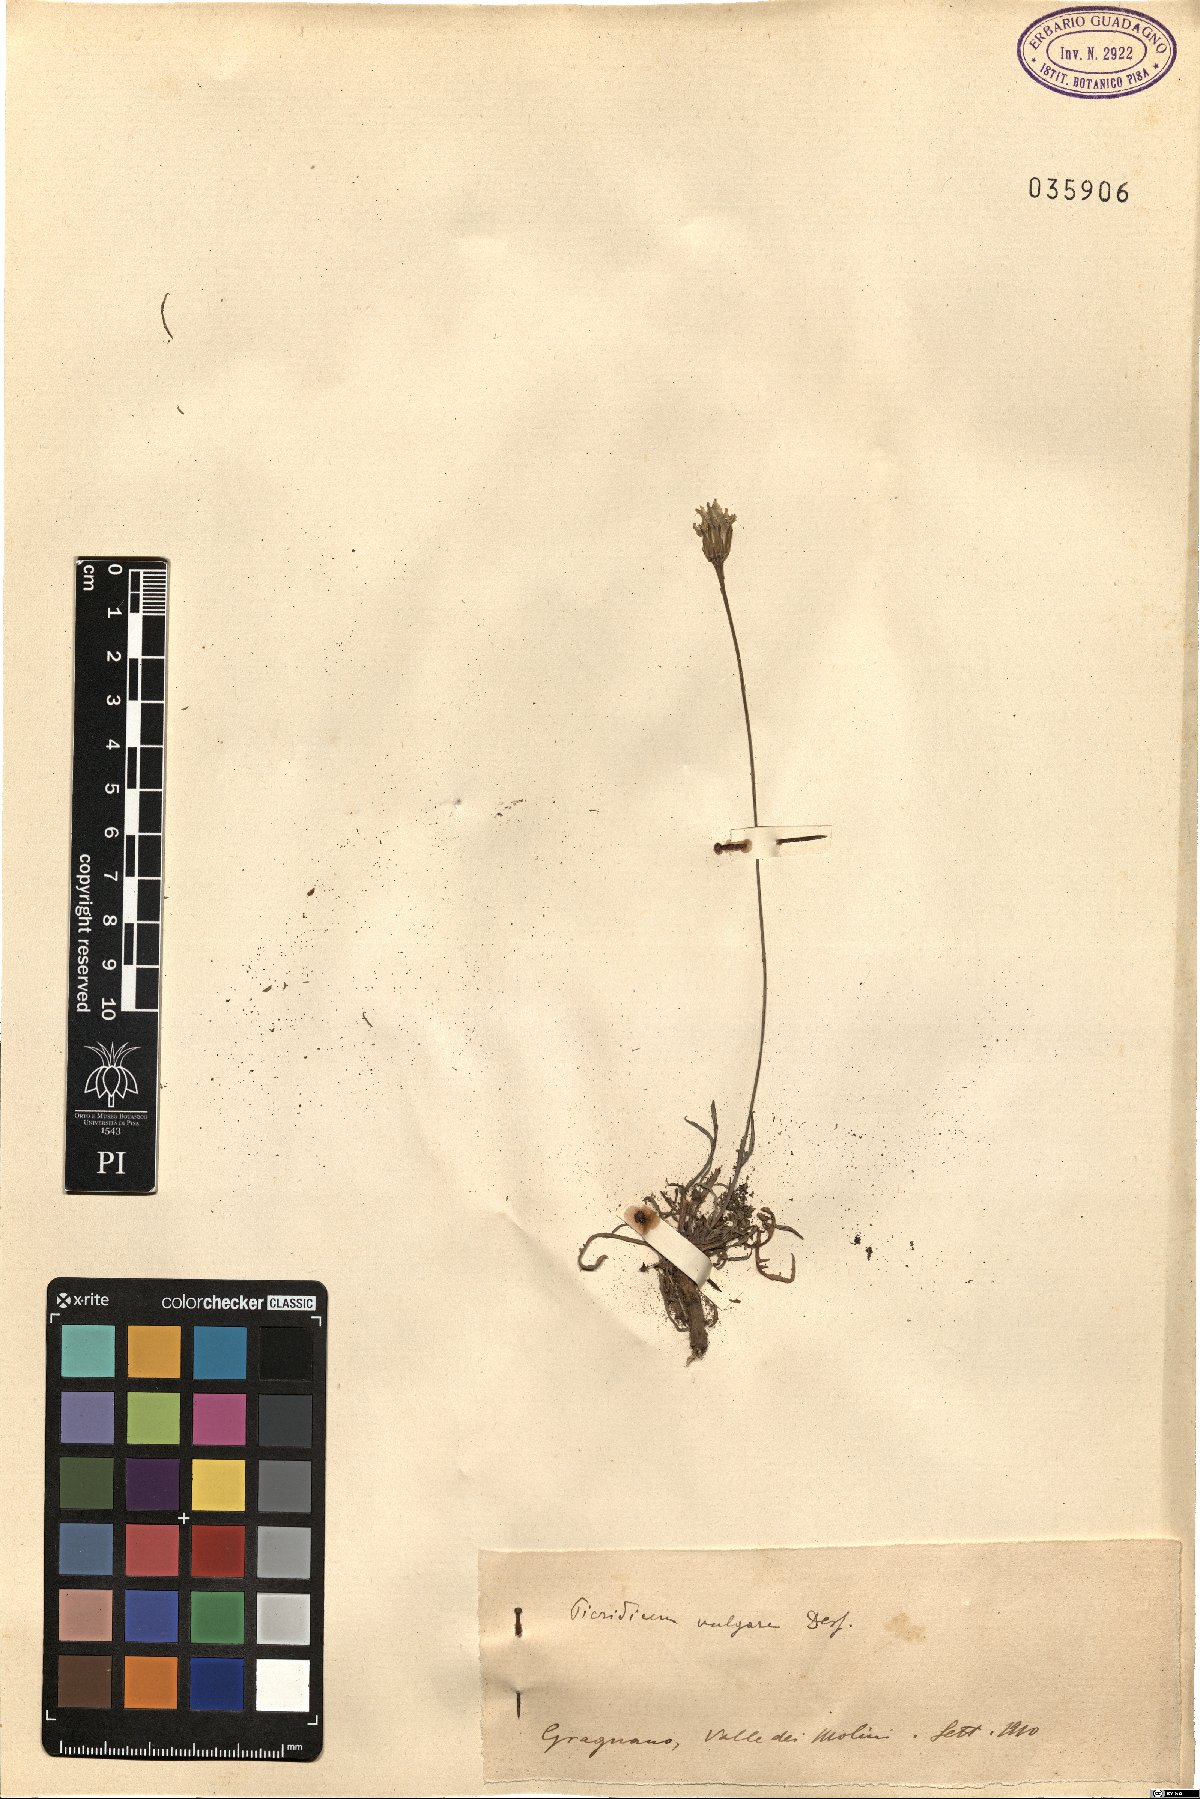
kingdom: Plantae
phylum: Tracheophyta
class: Magnoliopsida
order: Asterales
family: Asteraceae
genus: Reichardia
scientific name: Reichardia picroides
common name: Common brighteyes
